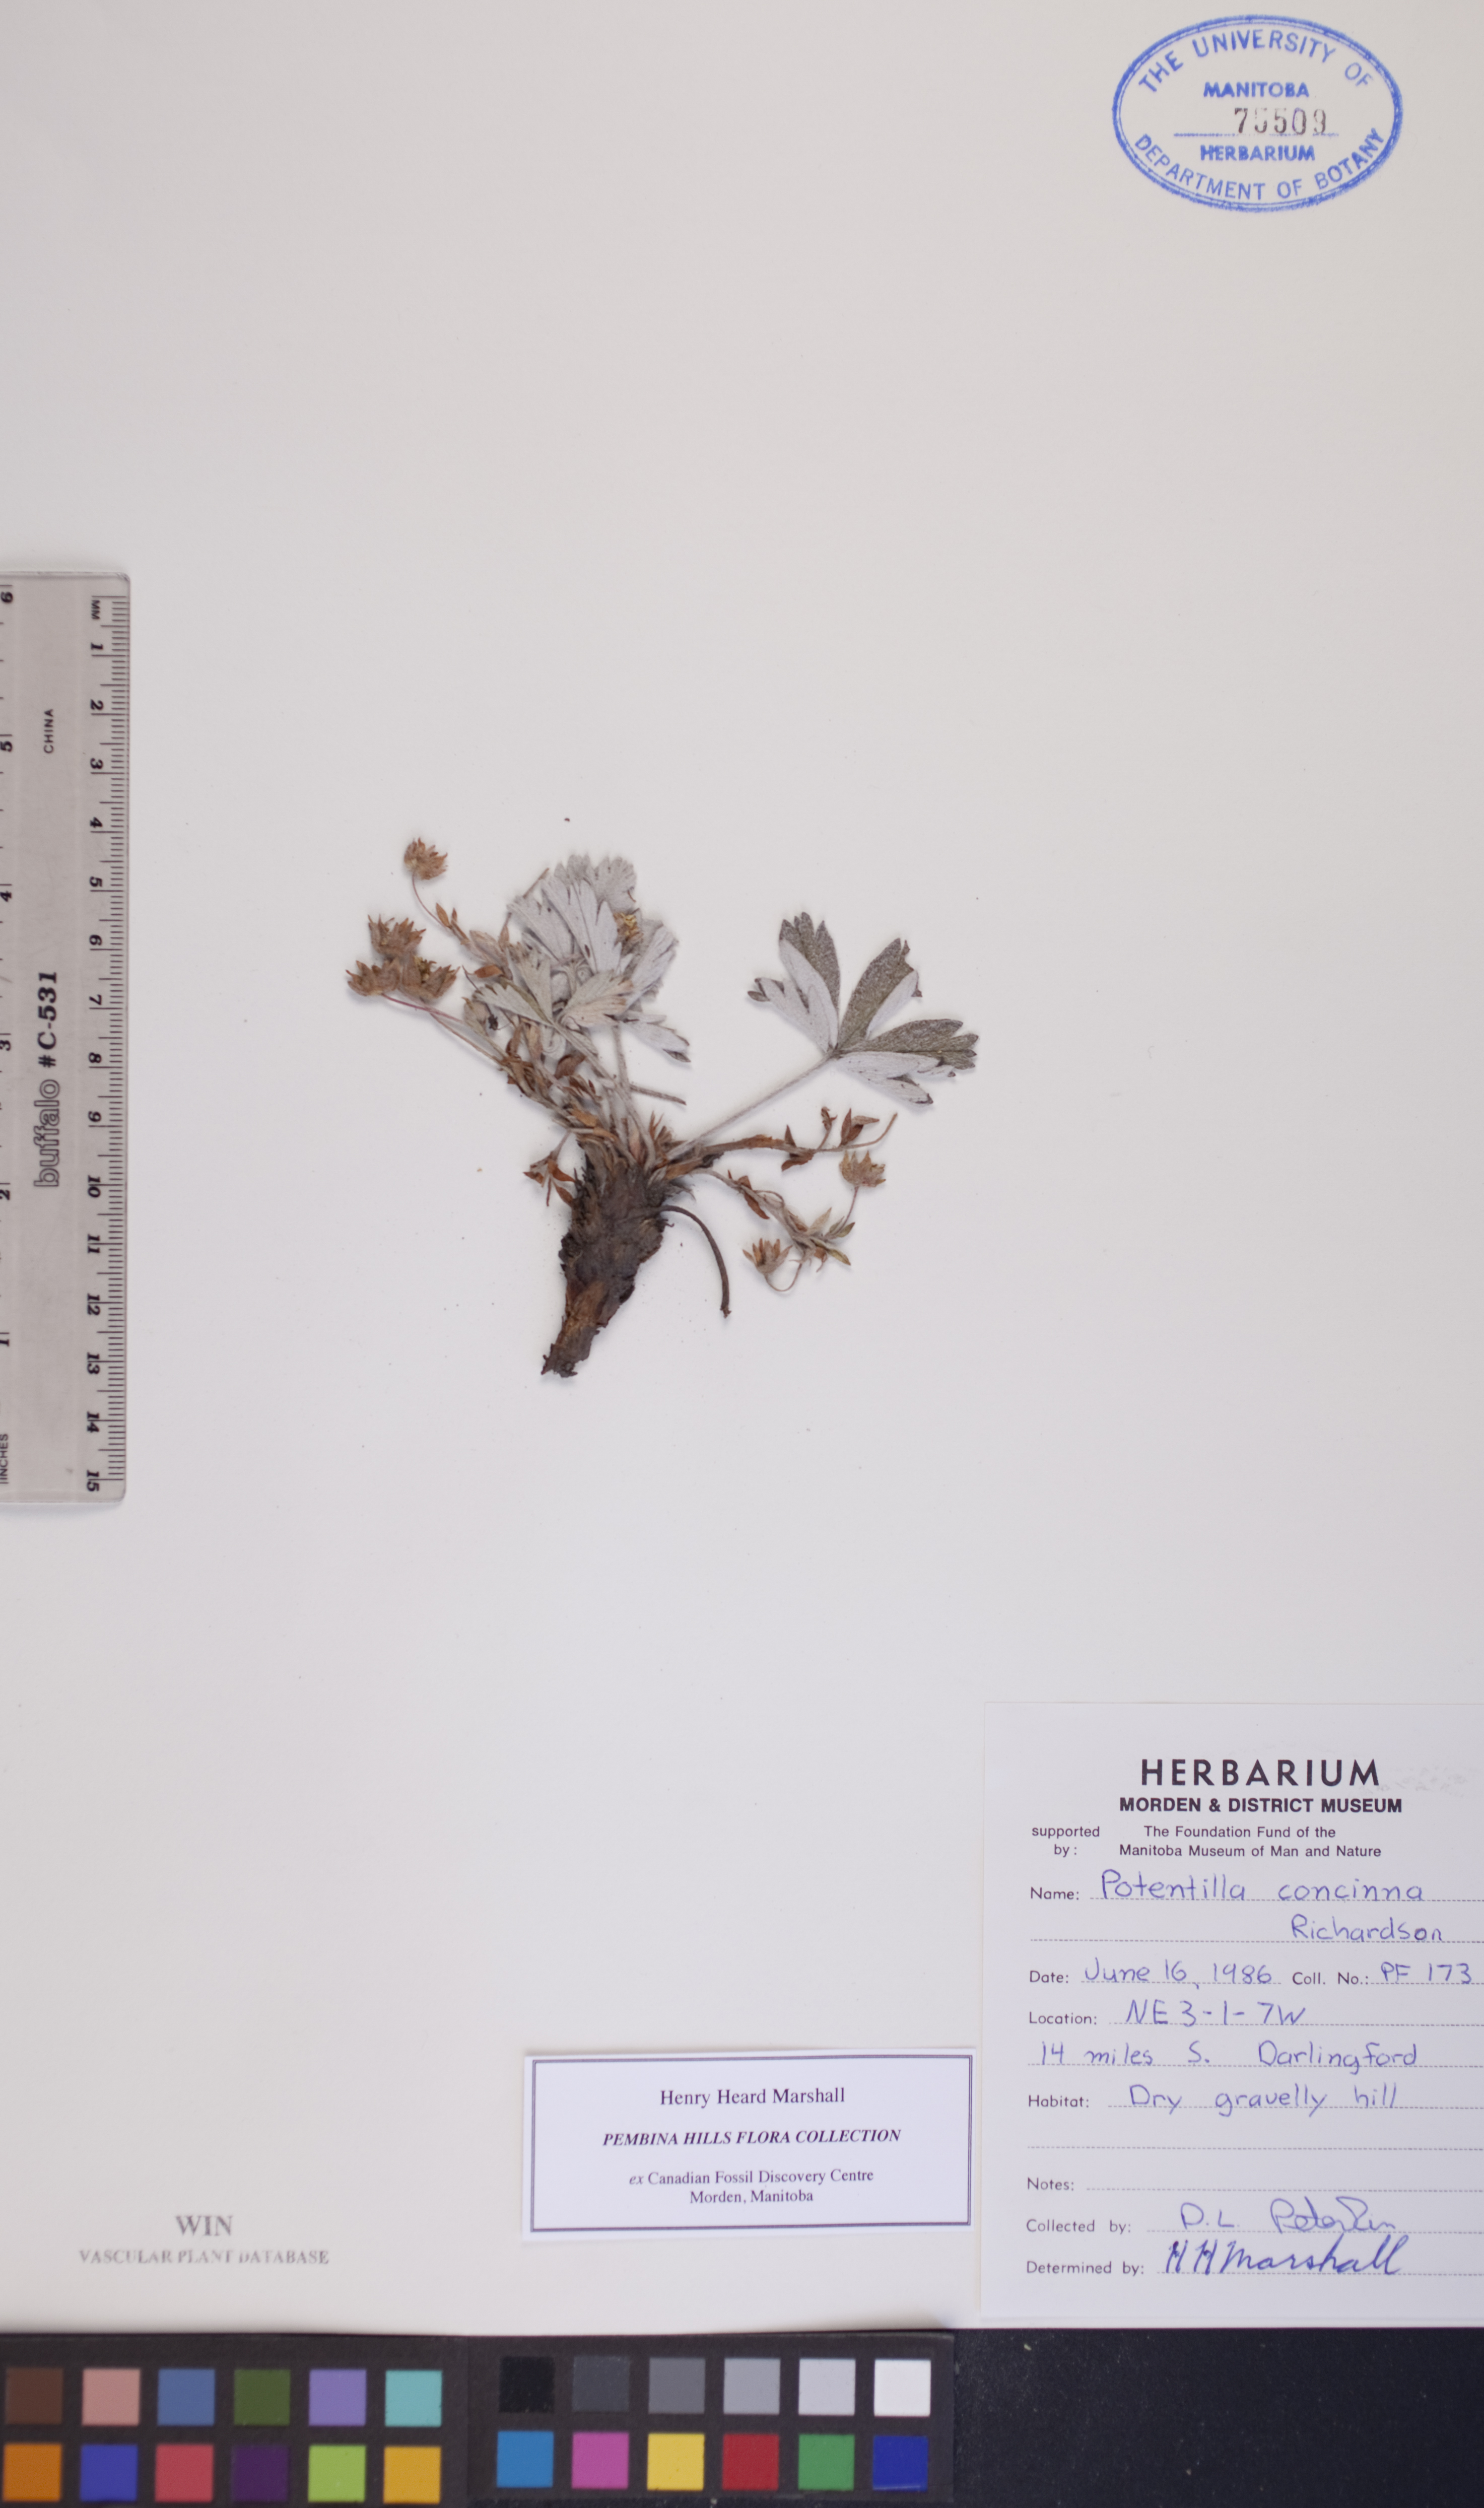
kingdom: Plantae
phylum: Tracheophyta
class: Magnoliopsida
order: Rosales
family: Rosaceae
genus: Potentilla
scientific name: Potentilla concinna
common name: Early cinquefoil
